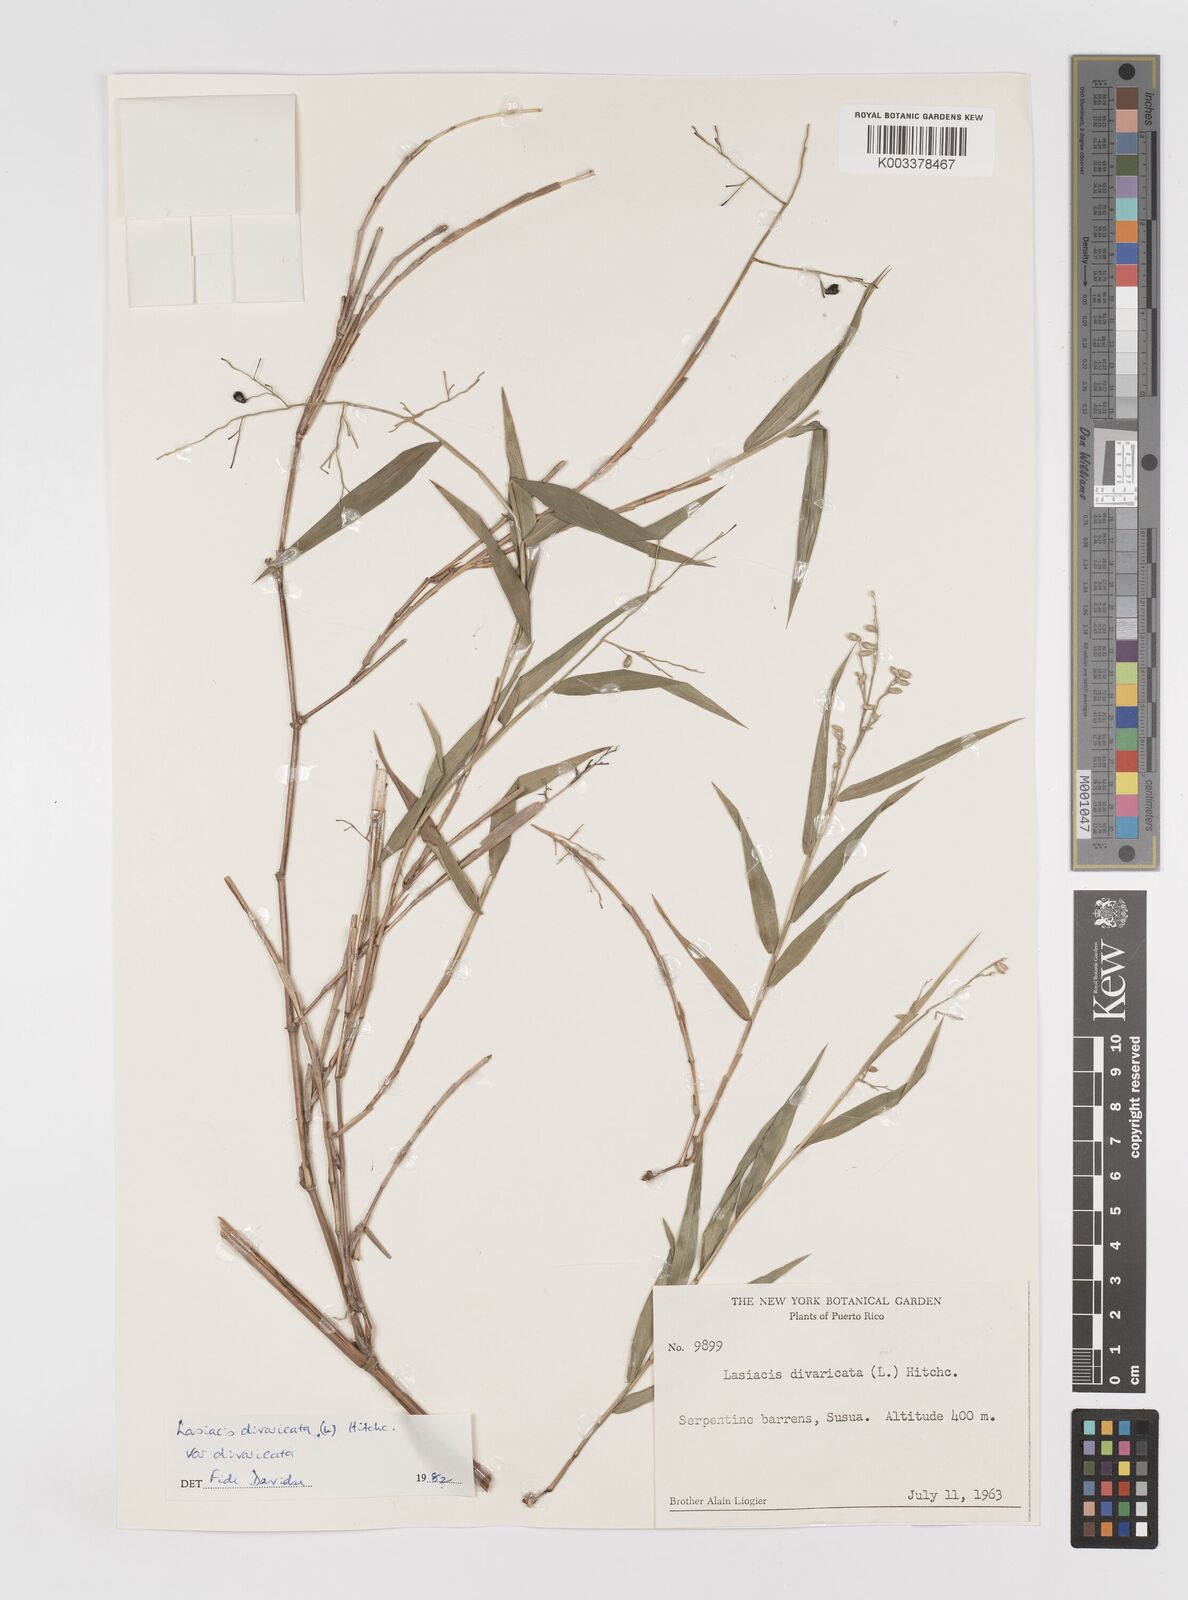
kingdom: Plantae
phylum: Tracheophyta
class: Liliopsida
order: Poales
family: Poaceae
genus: Lasiacis
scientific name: Lasiacis divaricata
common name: Smallcane
